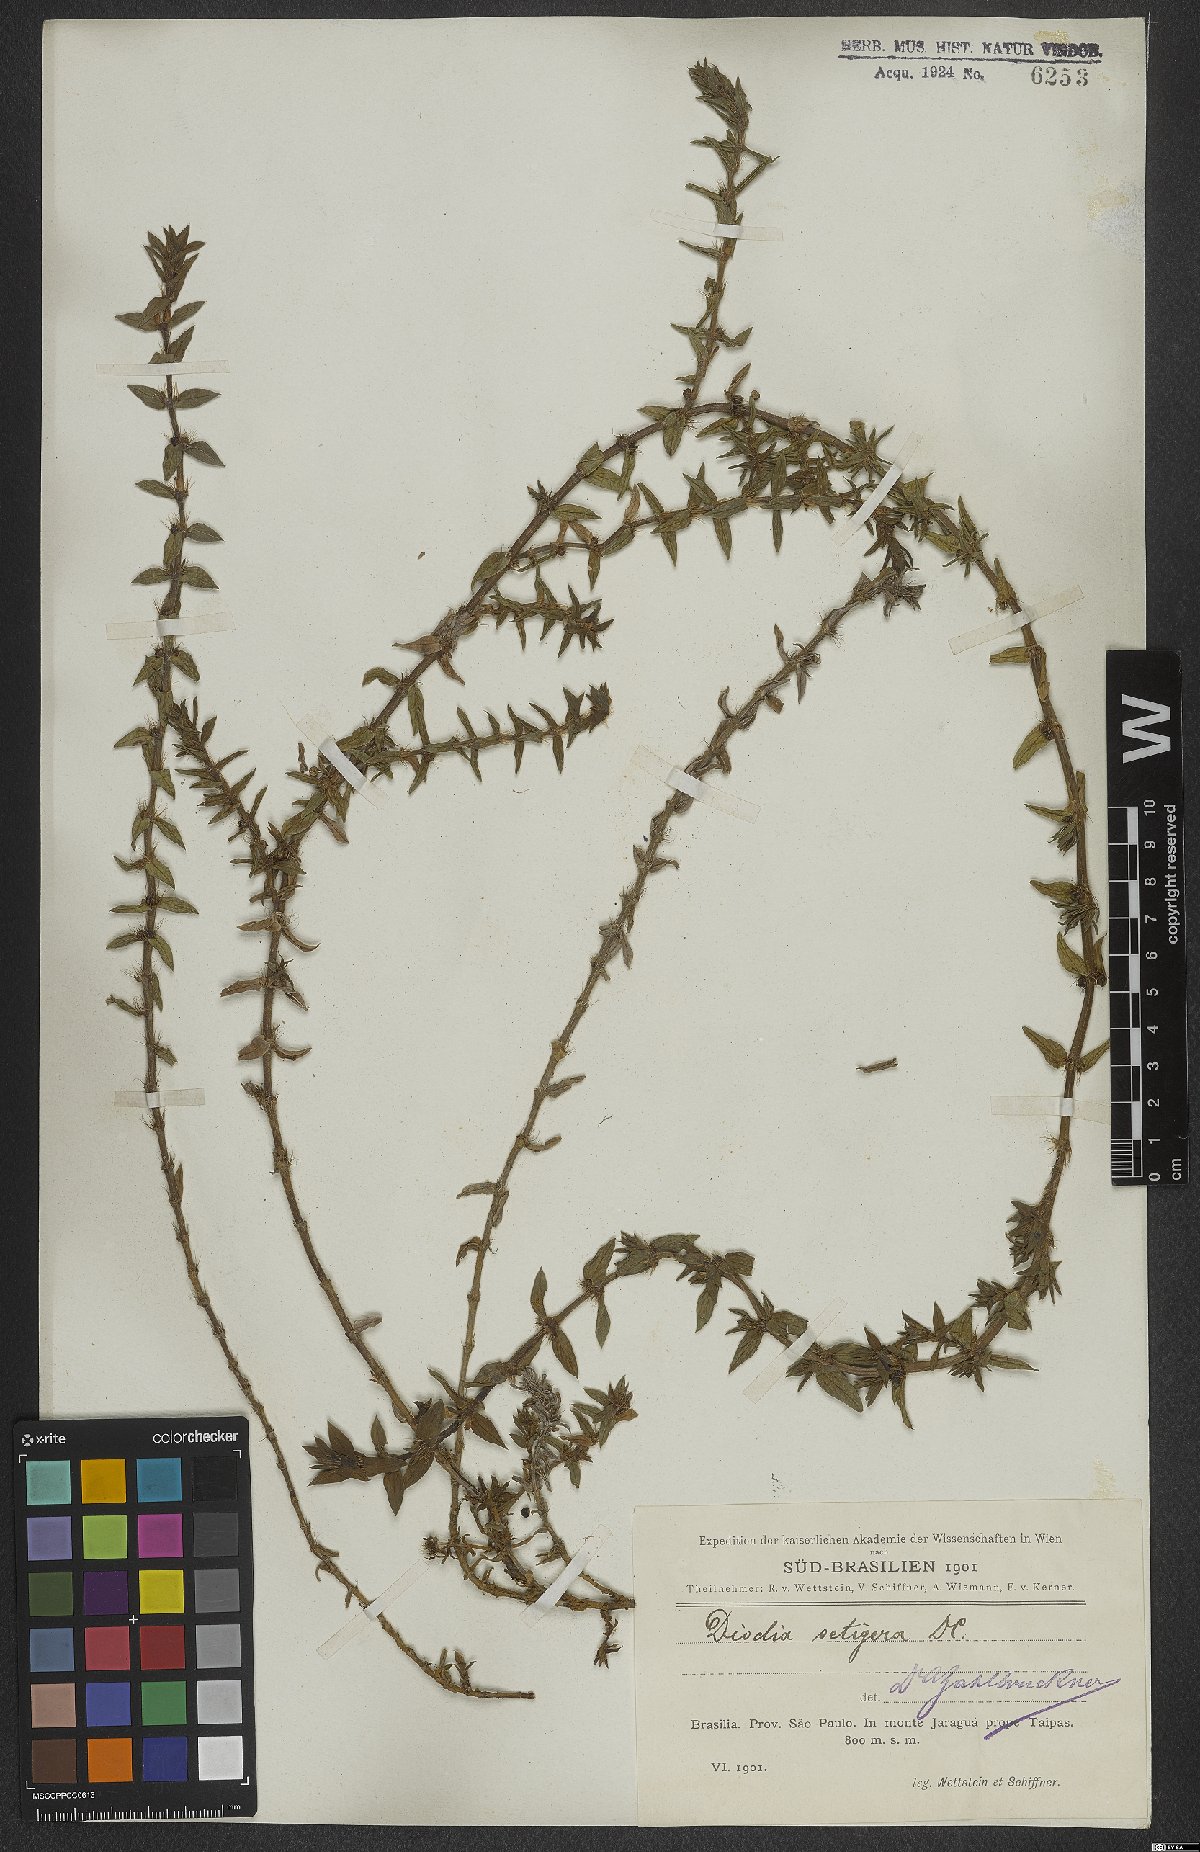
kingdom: Plantae
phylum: Tracheophyta
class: Magnoliopsida
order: Gentianales
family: Rubiaceae
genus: Hexasepalum
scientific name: Hexasepalum apiculatum
